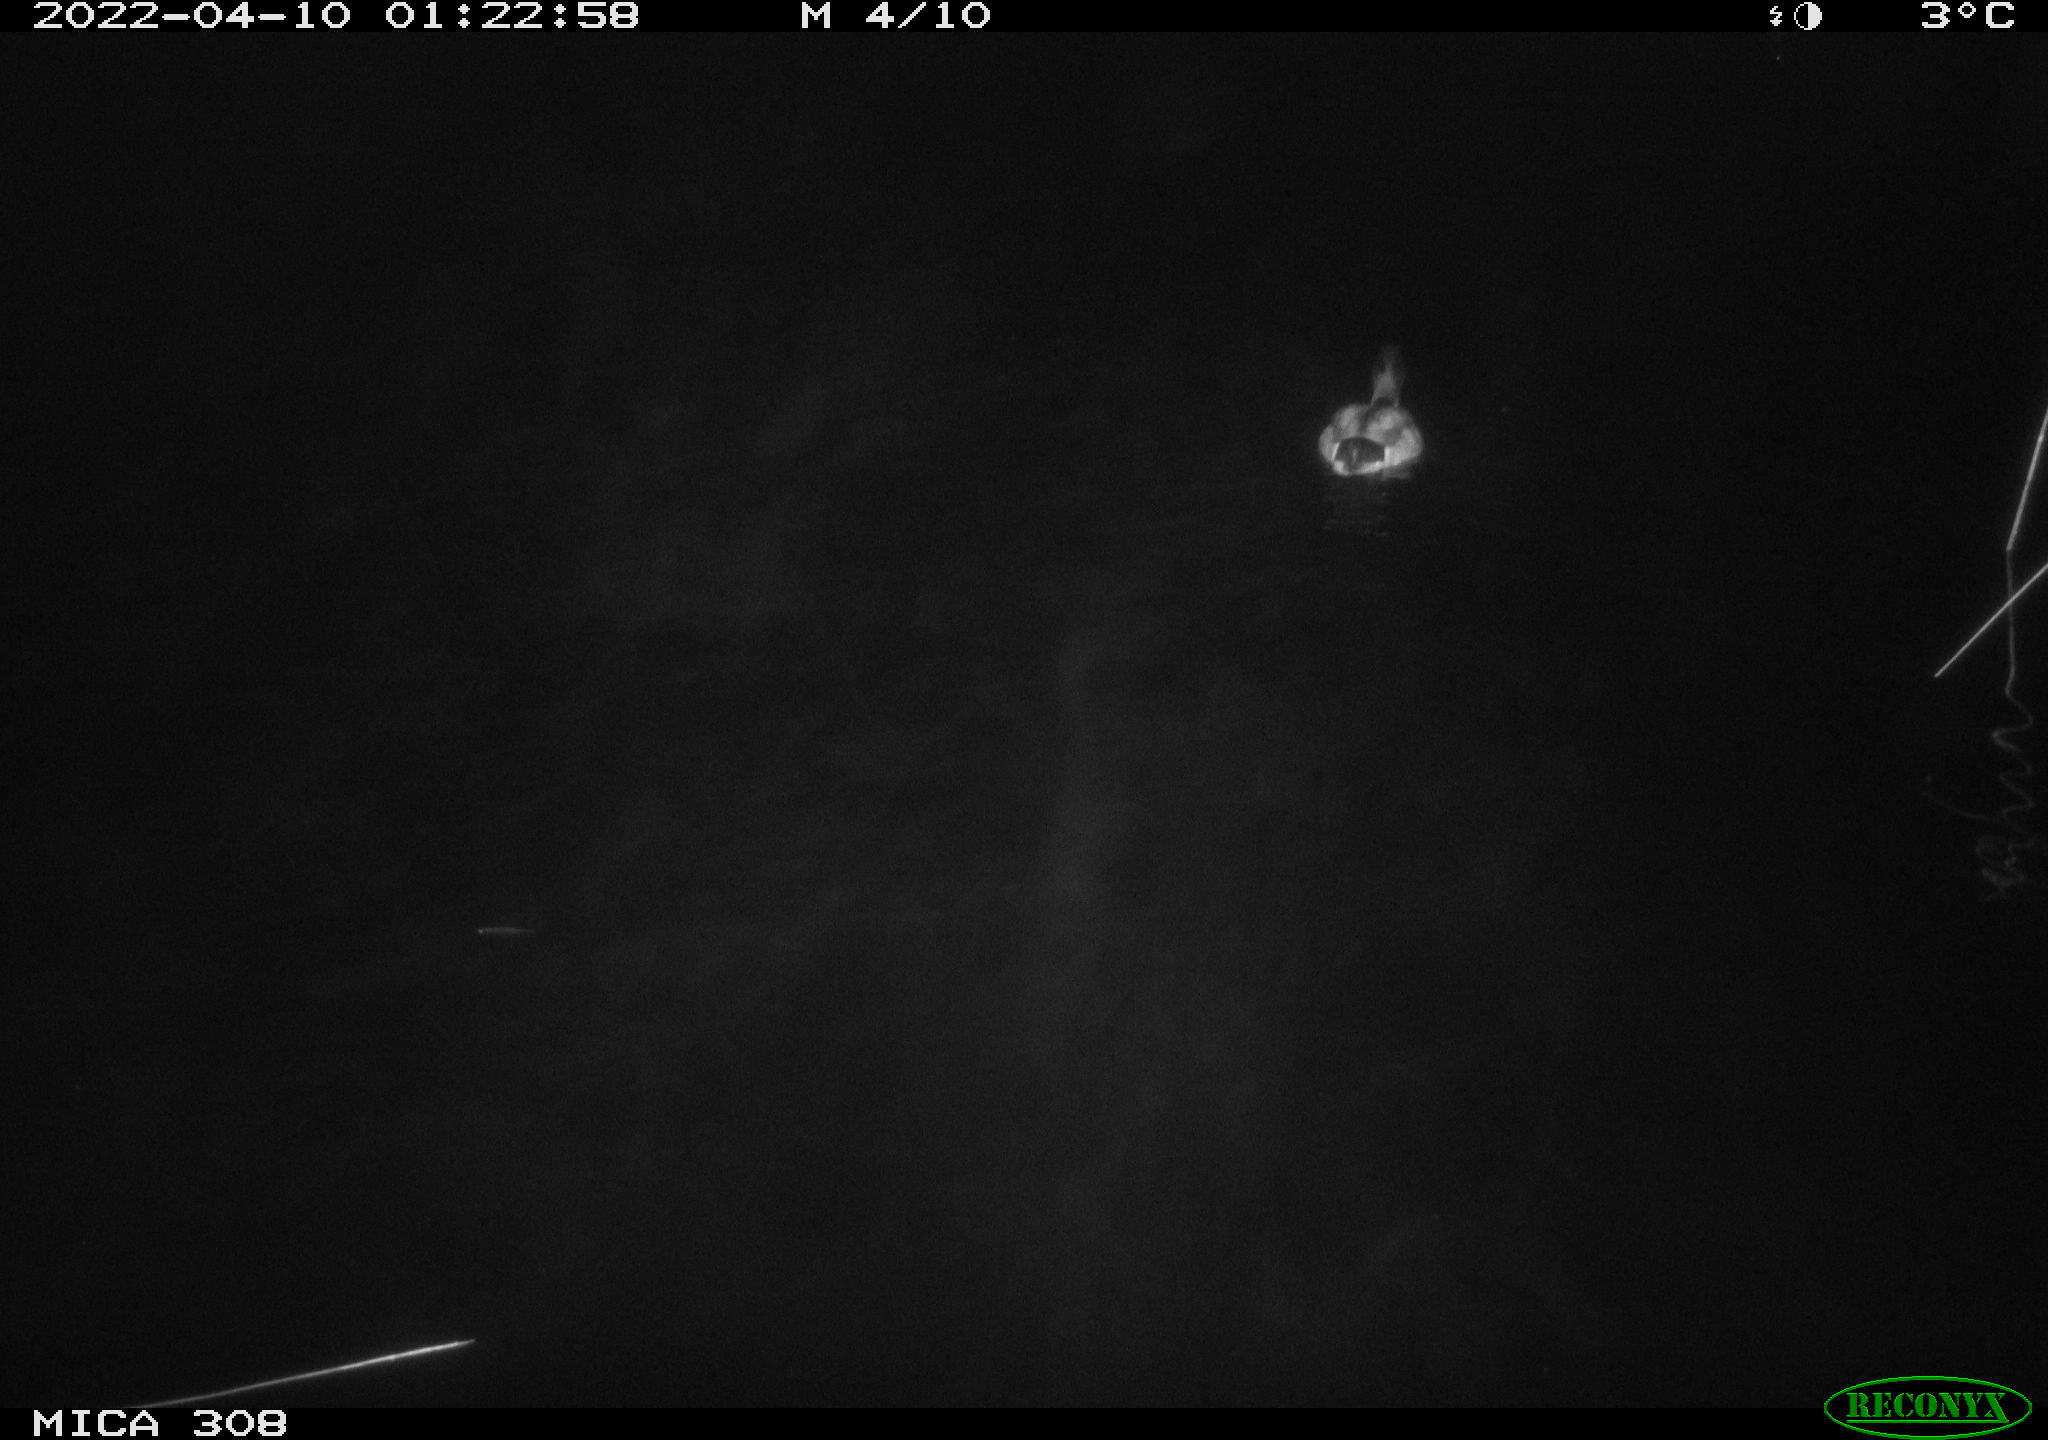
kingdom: Animalia
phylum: Chordata
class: Aves
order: Anseriformes
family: Anatidae
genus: Anas
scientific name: Anas platyrhynchos
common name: Mallard
